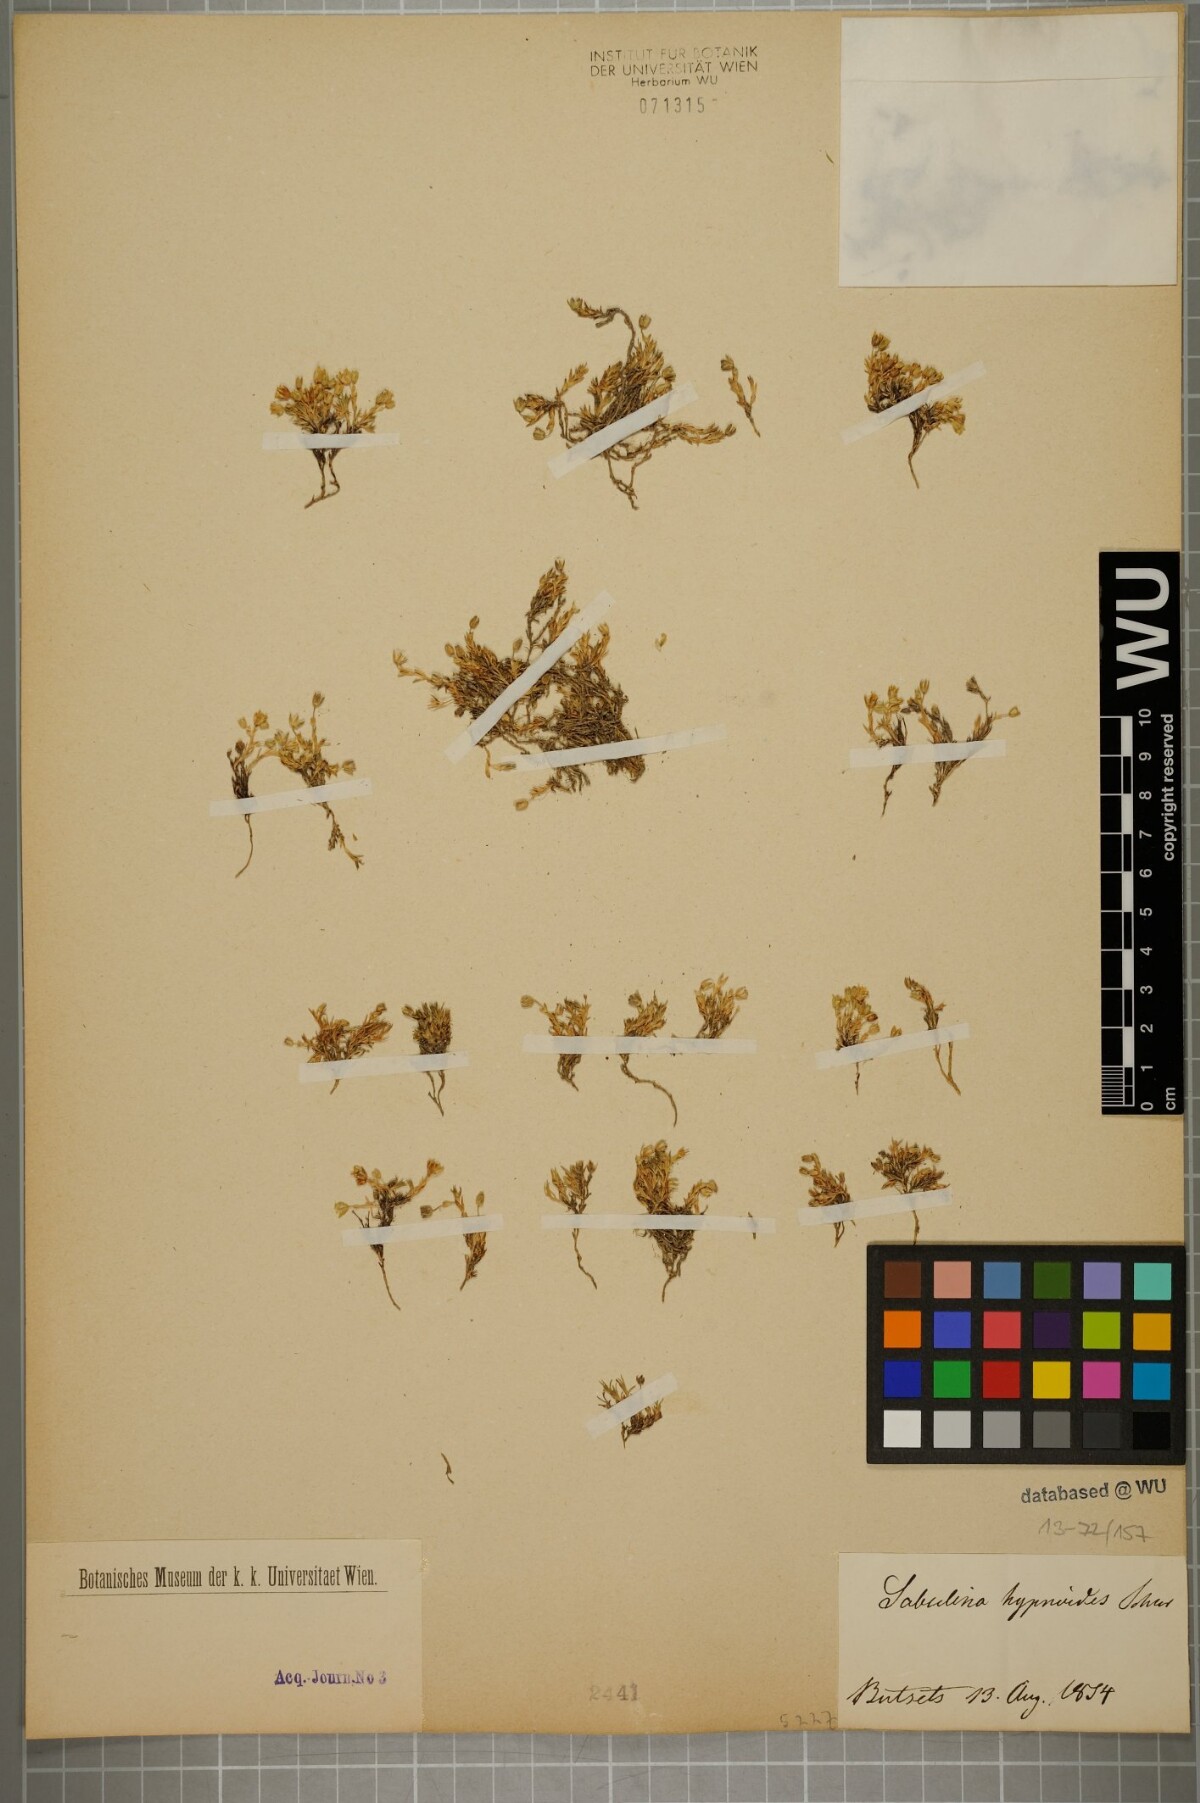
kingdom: Plantae
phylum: Tracheophyta
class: Magnoliopsida
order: Caryophyllales
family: Caryophyllaceae
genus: Minuartia
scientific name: Minuartia
